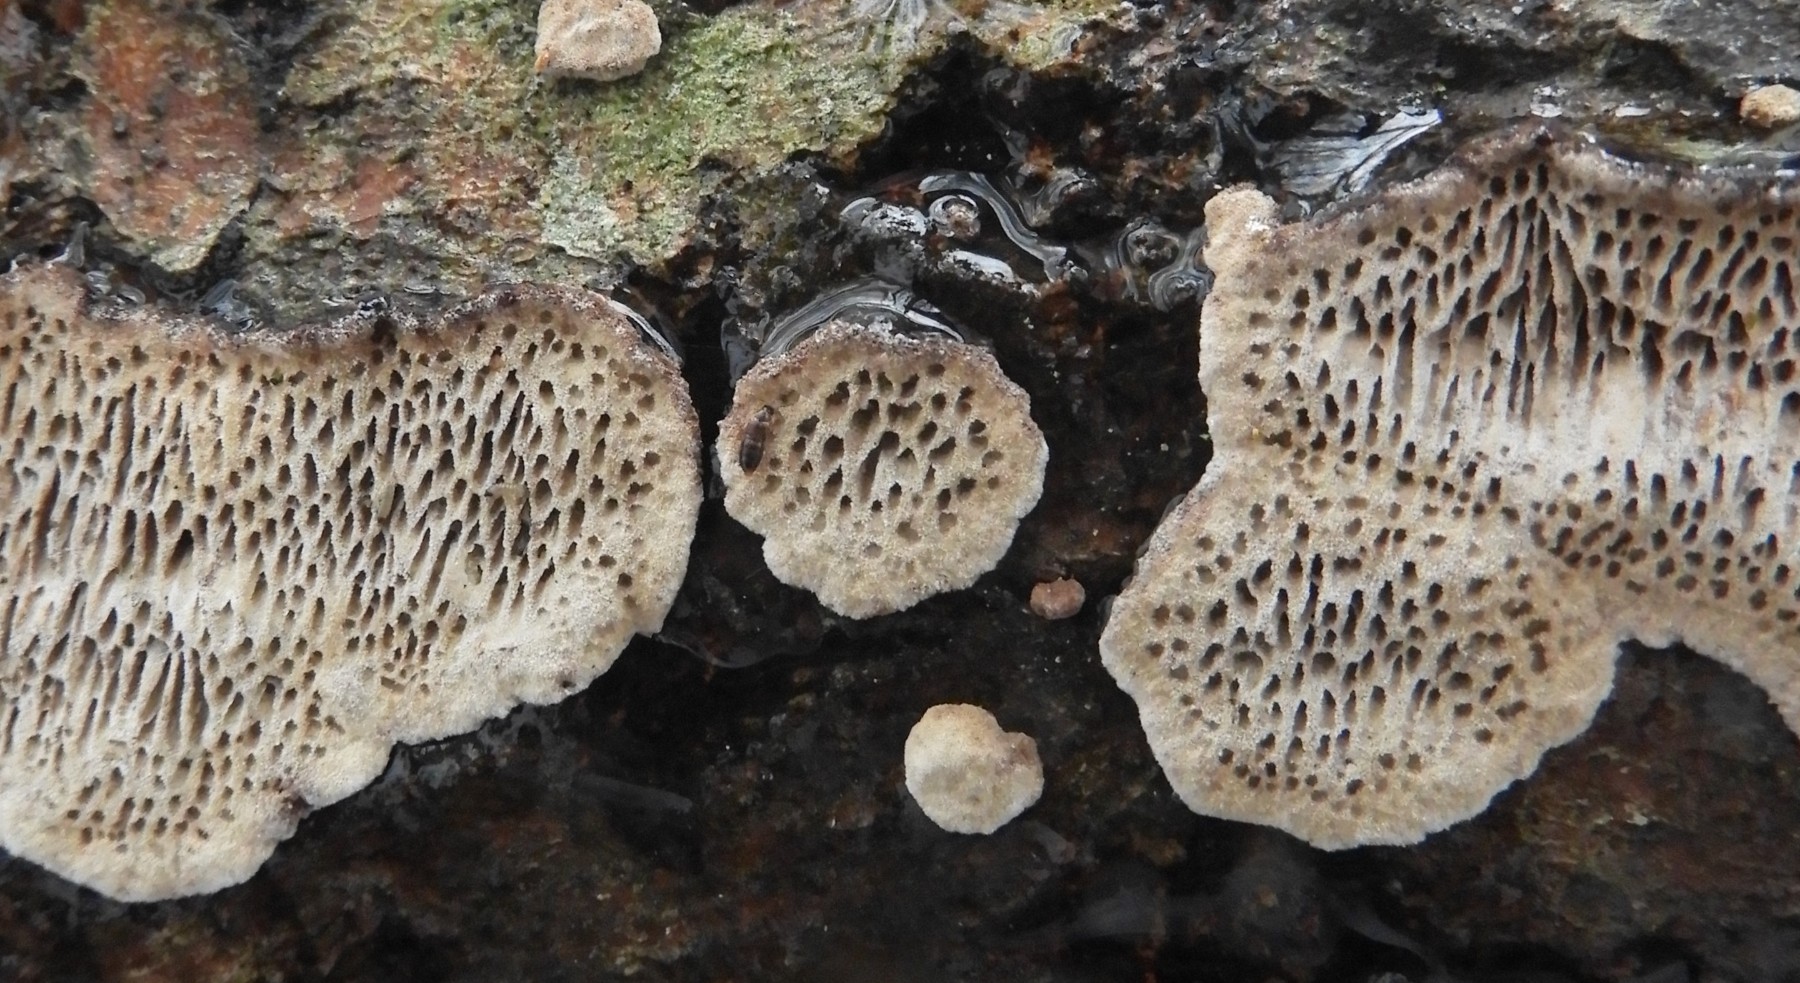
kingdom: Fungi
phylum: Basidiomycota
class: Agaricomycetes
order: Polyporales
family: Polyporaceae
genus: Podofomes
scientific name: Podofomes mollis
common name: blød begporesvamp
